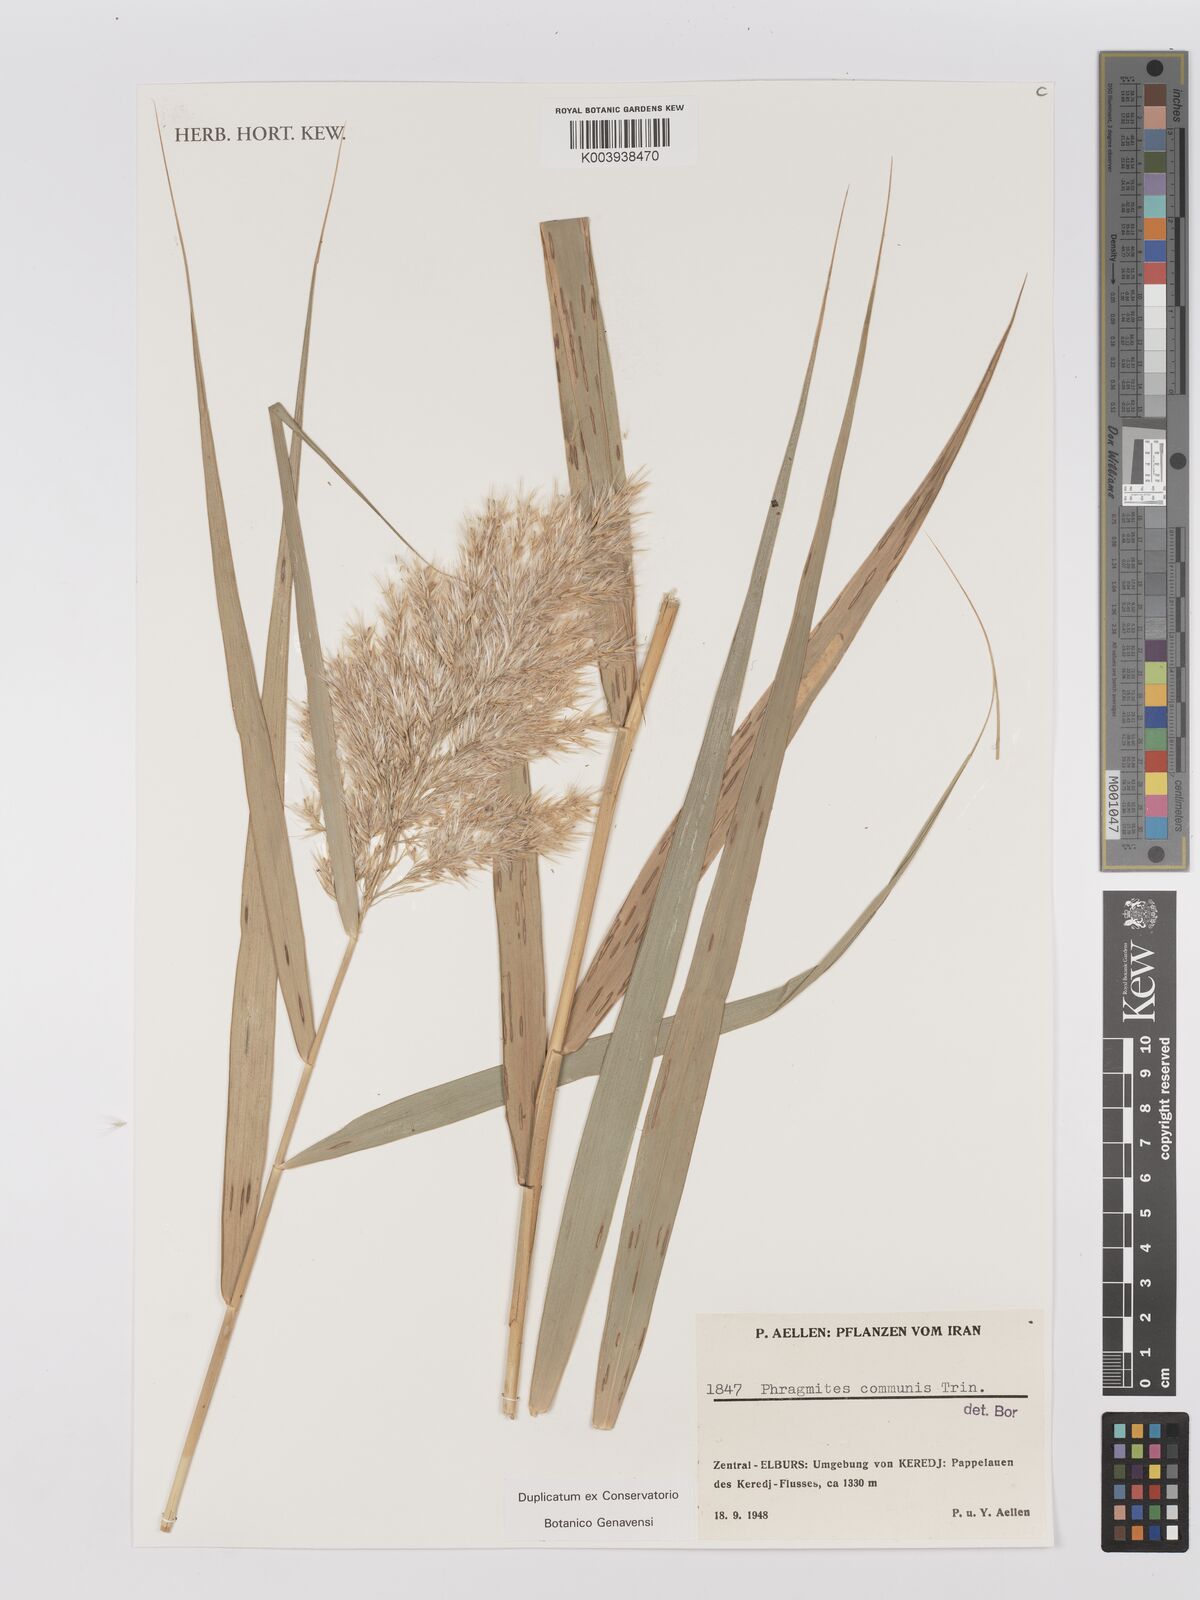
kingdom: Plantae
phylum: Tracheophyta
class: Liliopsida
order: Poales
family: Poaceae
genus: Phragmites
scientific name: Phragmites australis
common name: Common reed
